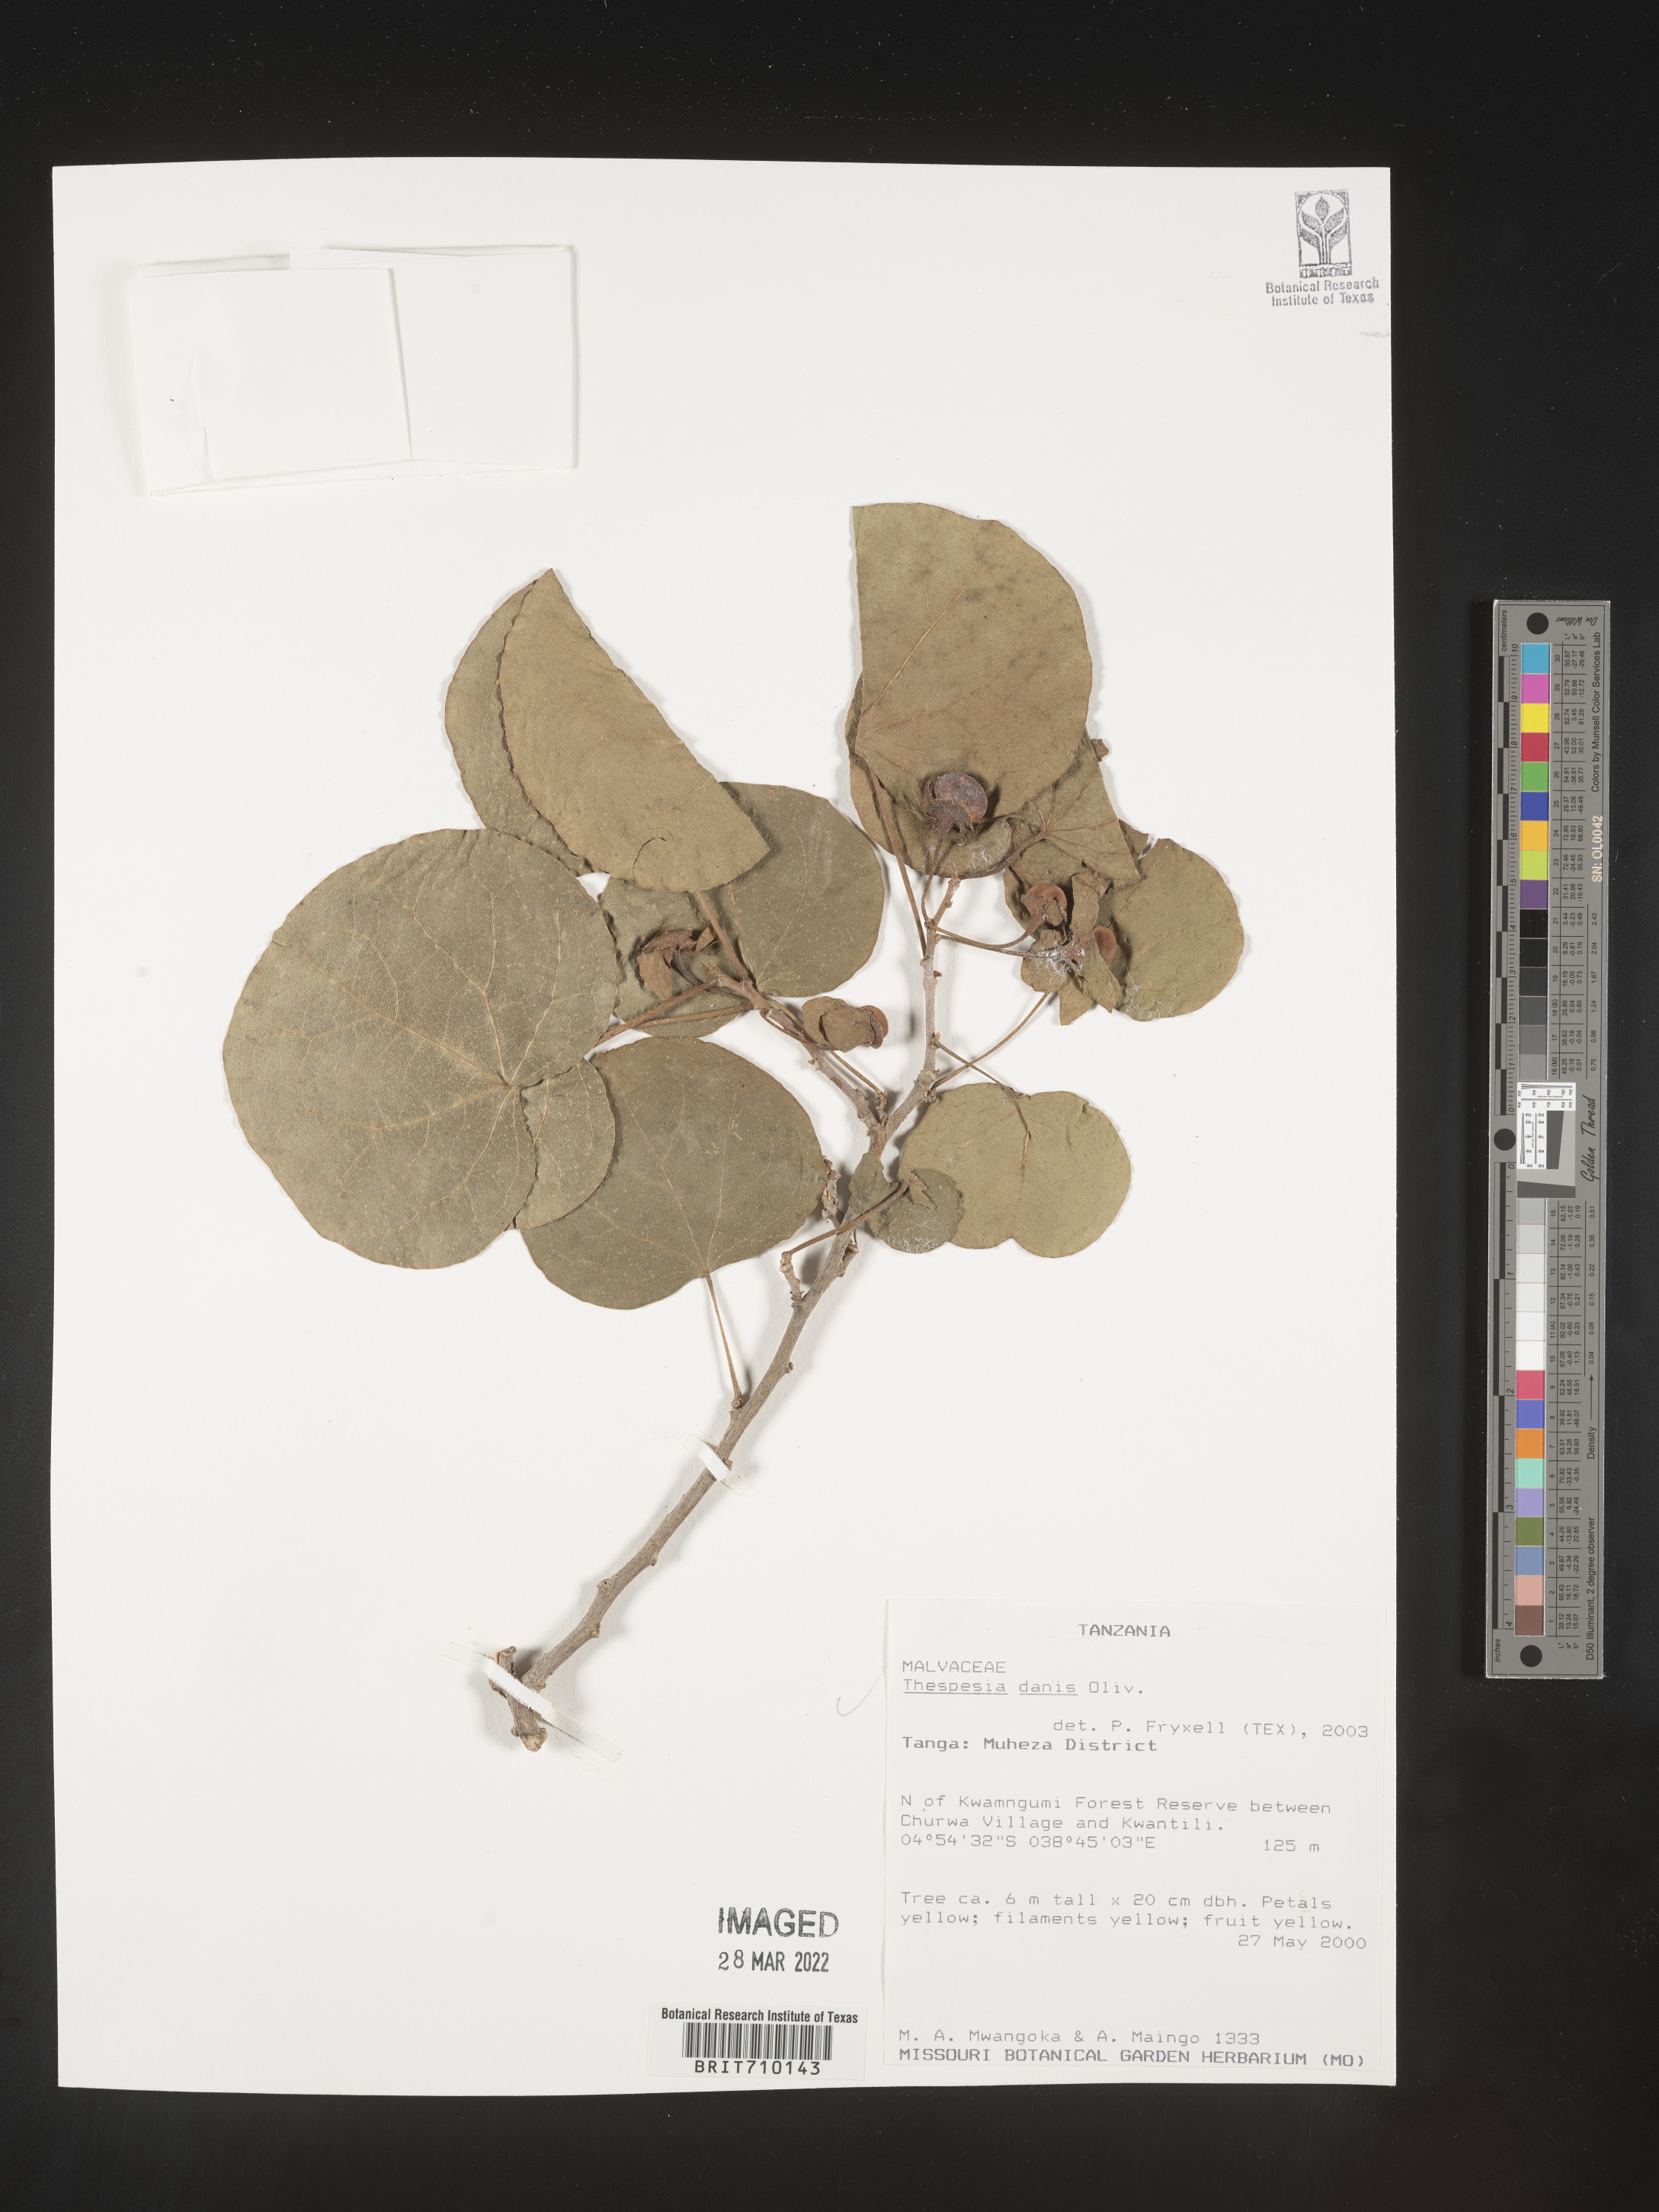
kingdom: Plantae
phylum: Tracheophyta
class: Magnoliopsida
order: Malvales
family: Malvaceae
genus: Thespesia
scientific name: Thespesia
